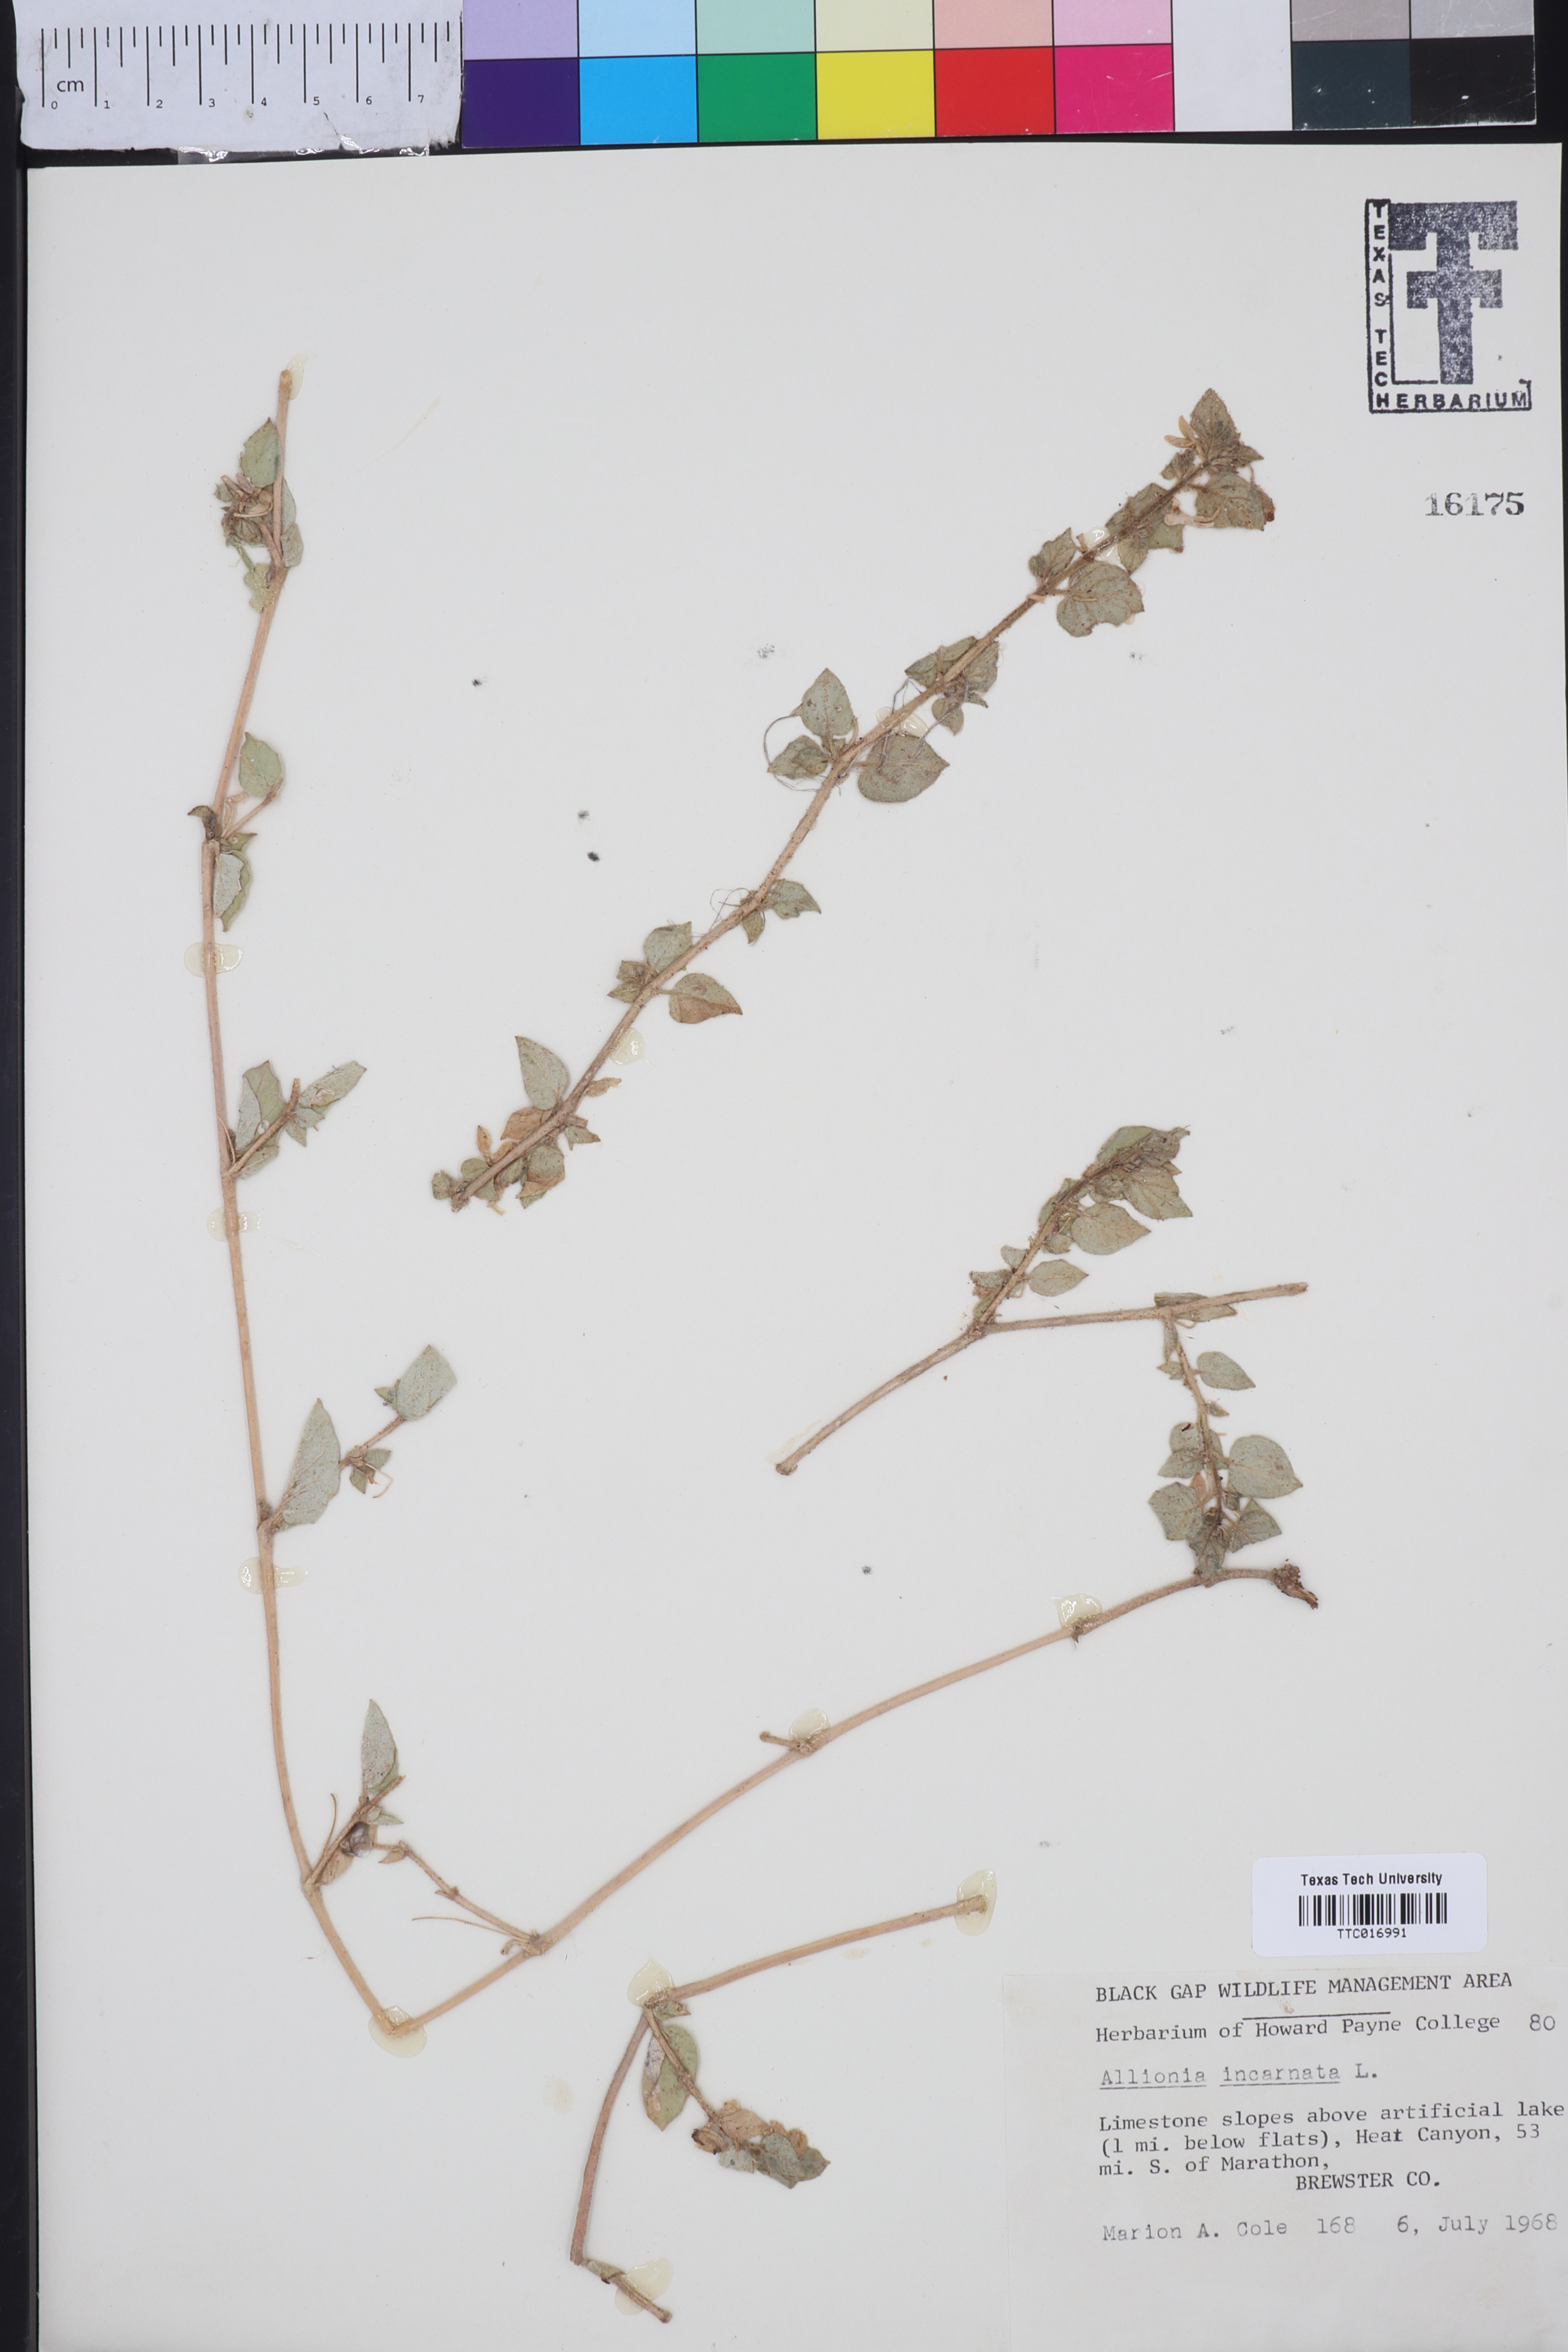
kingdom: Plantae
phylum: Tracheophyta
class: Magnoliopsida
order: Caryophyllales
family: Nyctaginaceae
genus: Allionia
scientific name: Allionia incarnata
